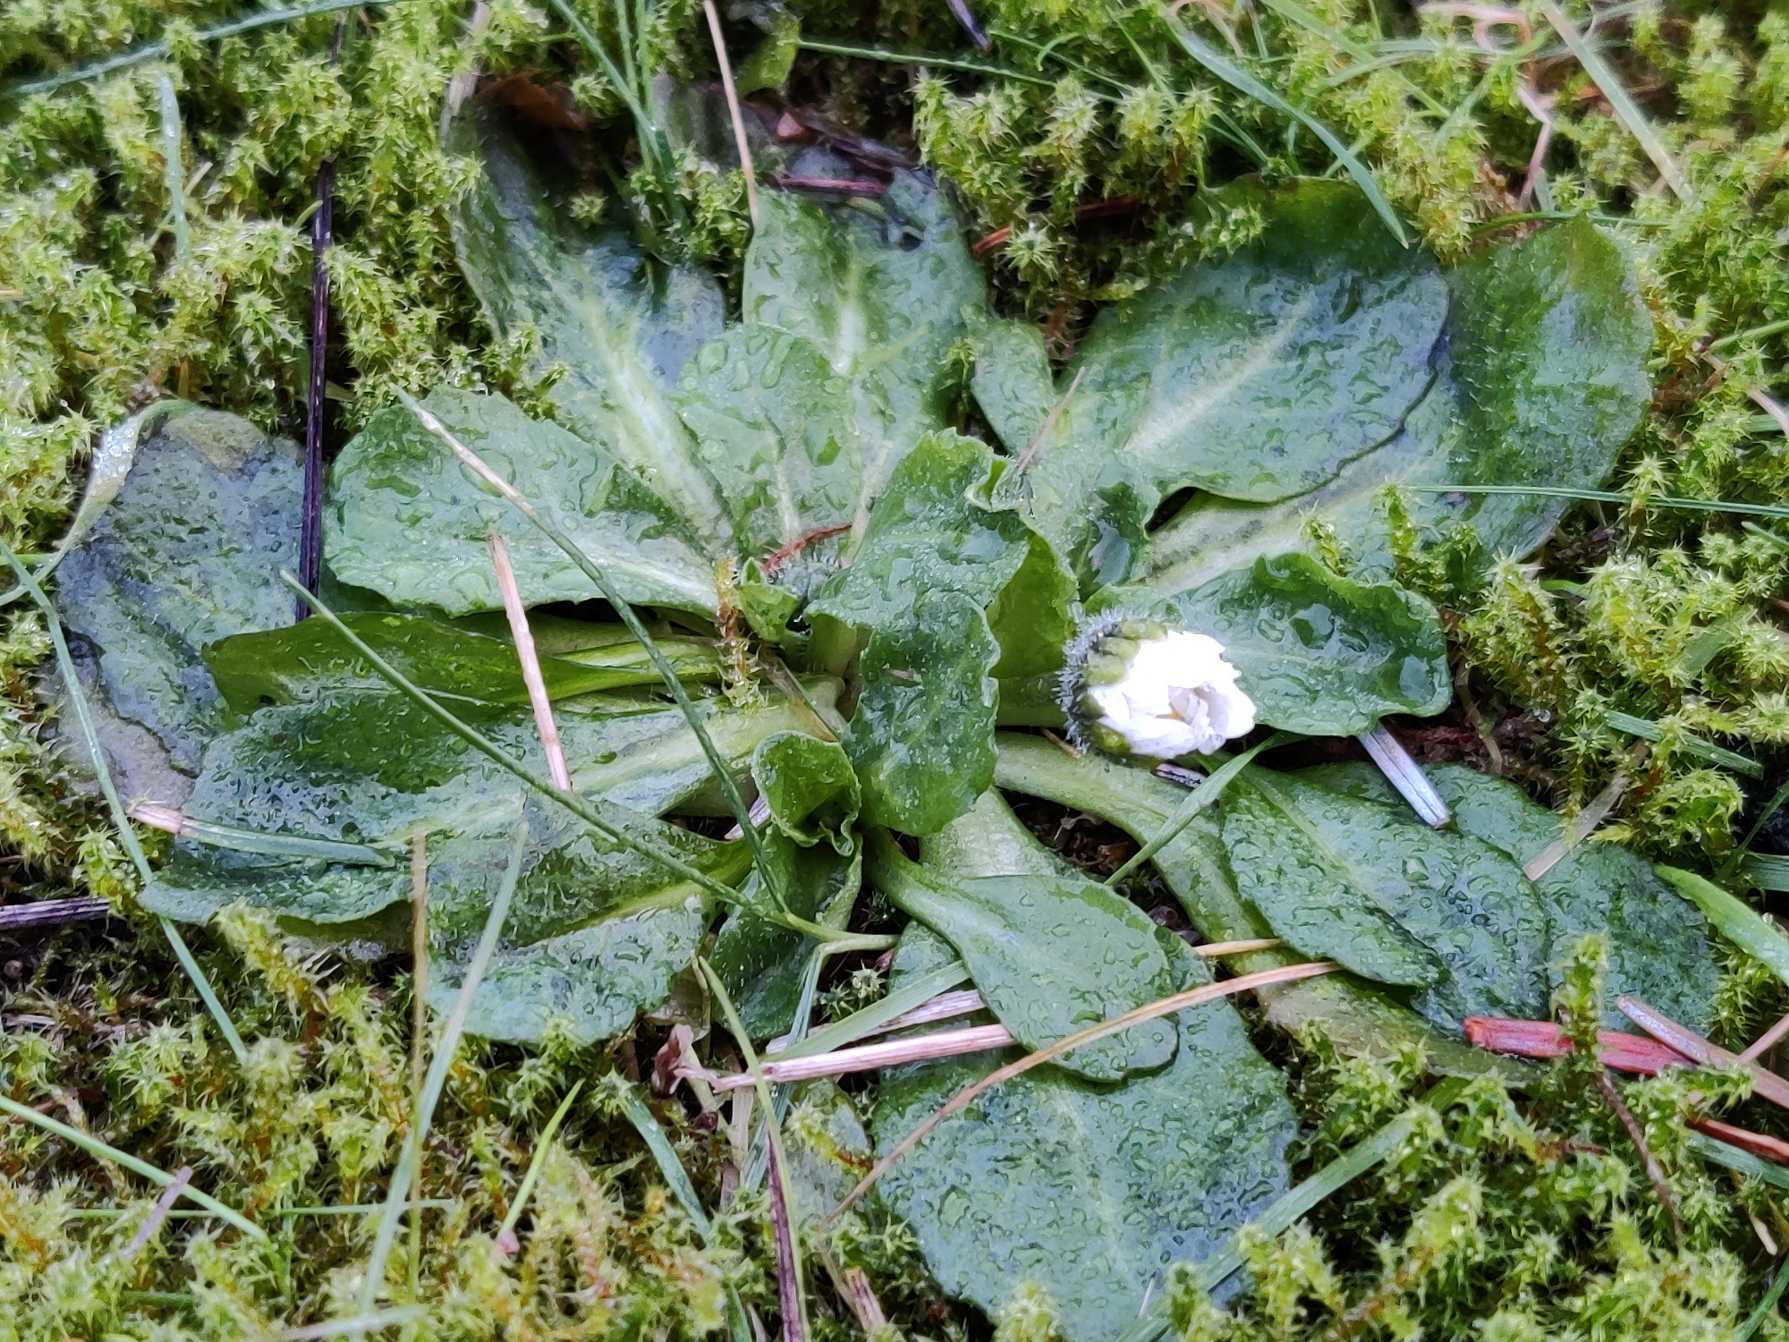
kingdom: Plantae
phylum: Tracheophyta
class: Magnoliopsida
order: Asterales
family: Asteraceae
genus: Bellis
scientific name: Bellis perennis
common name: Tusindfryd
